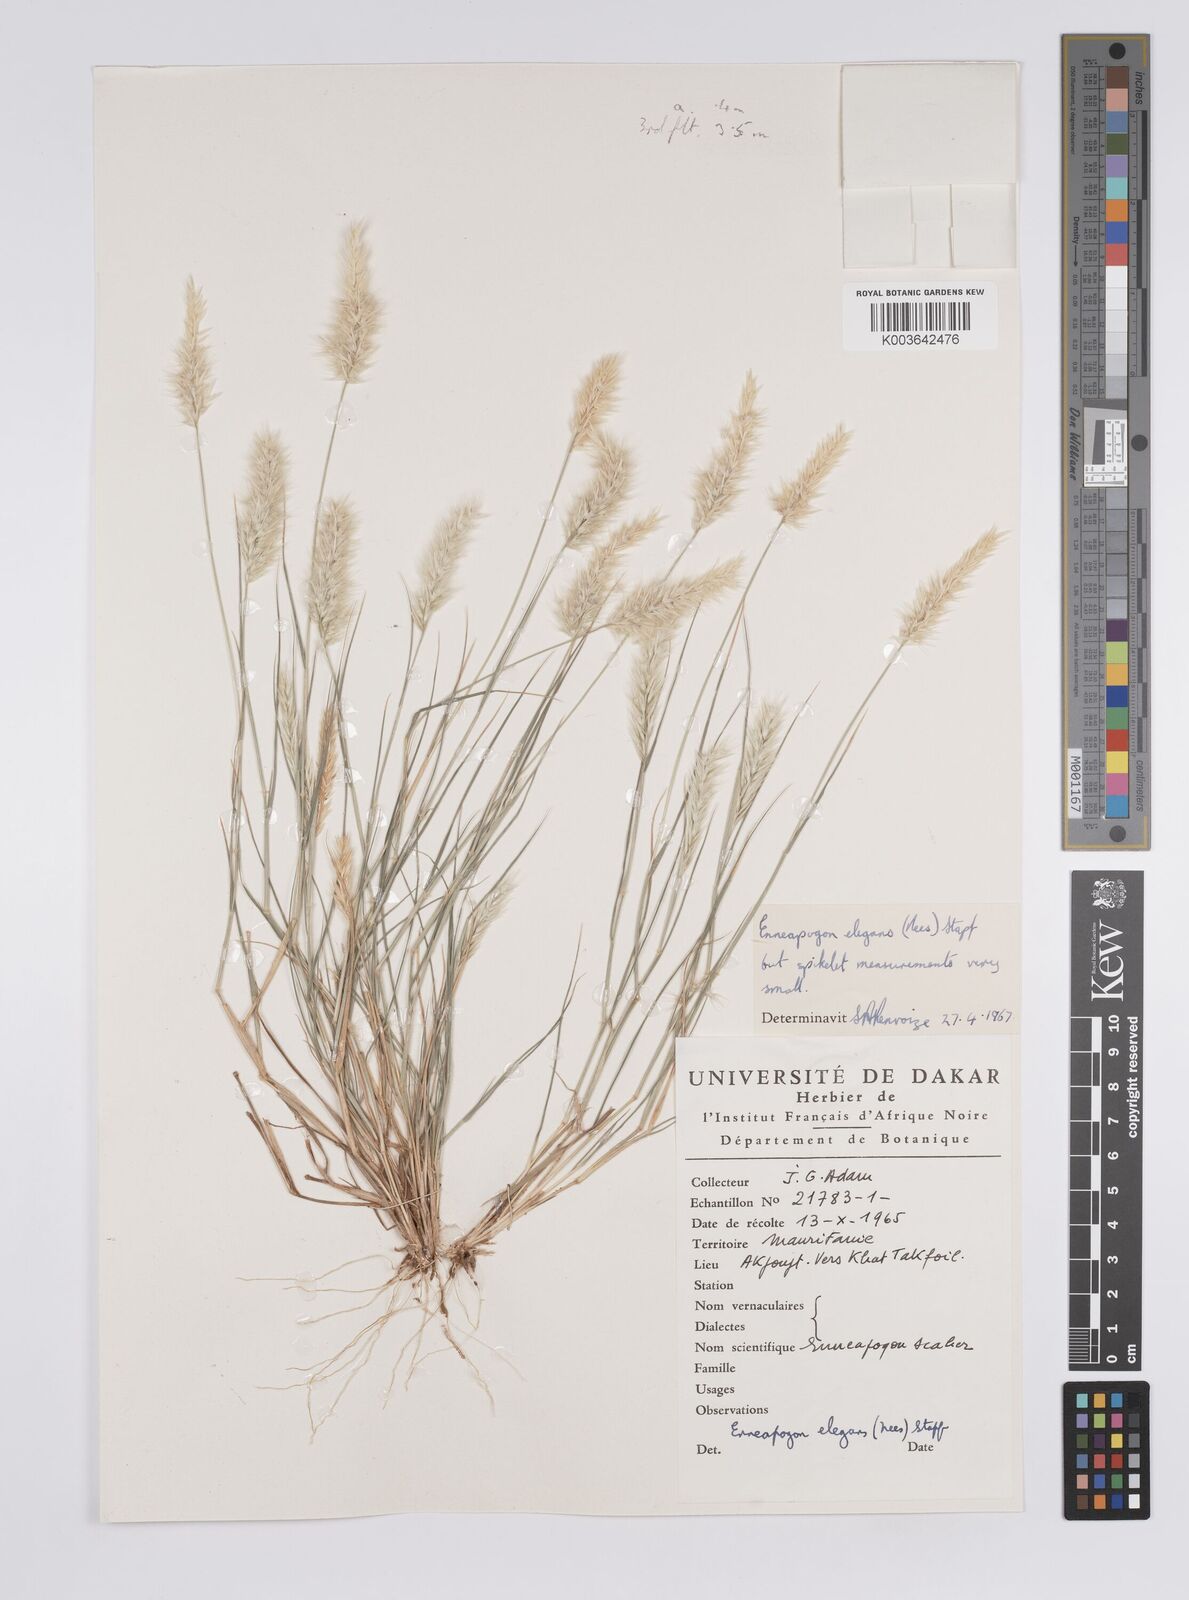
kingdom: Plantae
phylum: Tracheophyta
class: Liliopsida
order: Poales
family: Poaceae
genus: Enneapogon
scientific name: Enneapogon persicus
